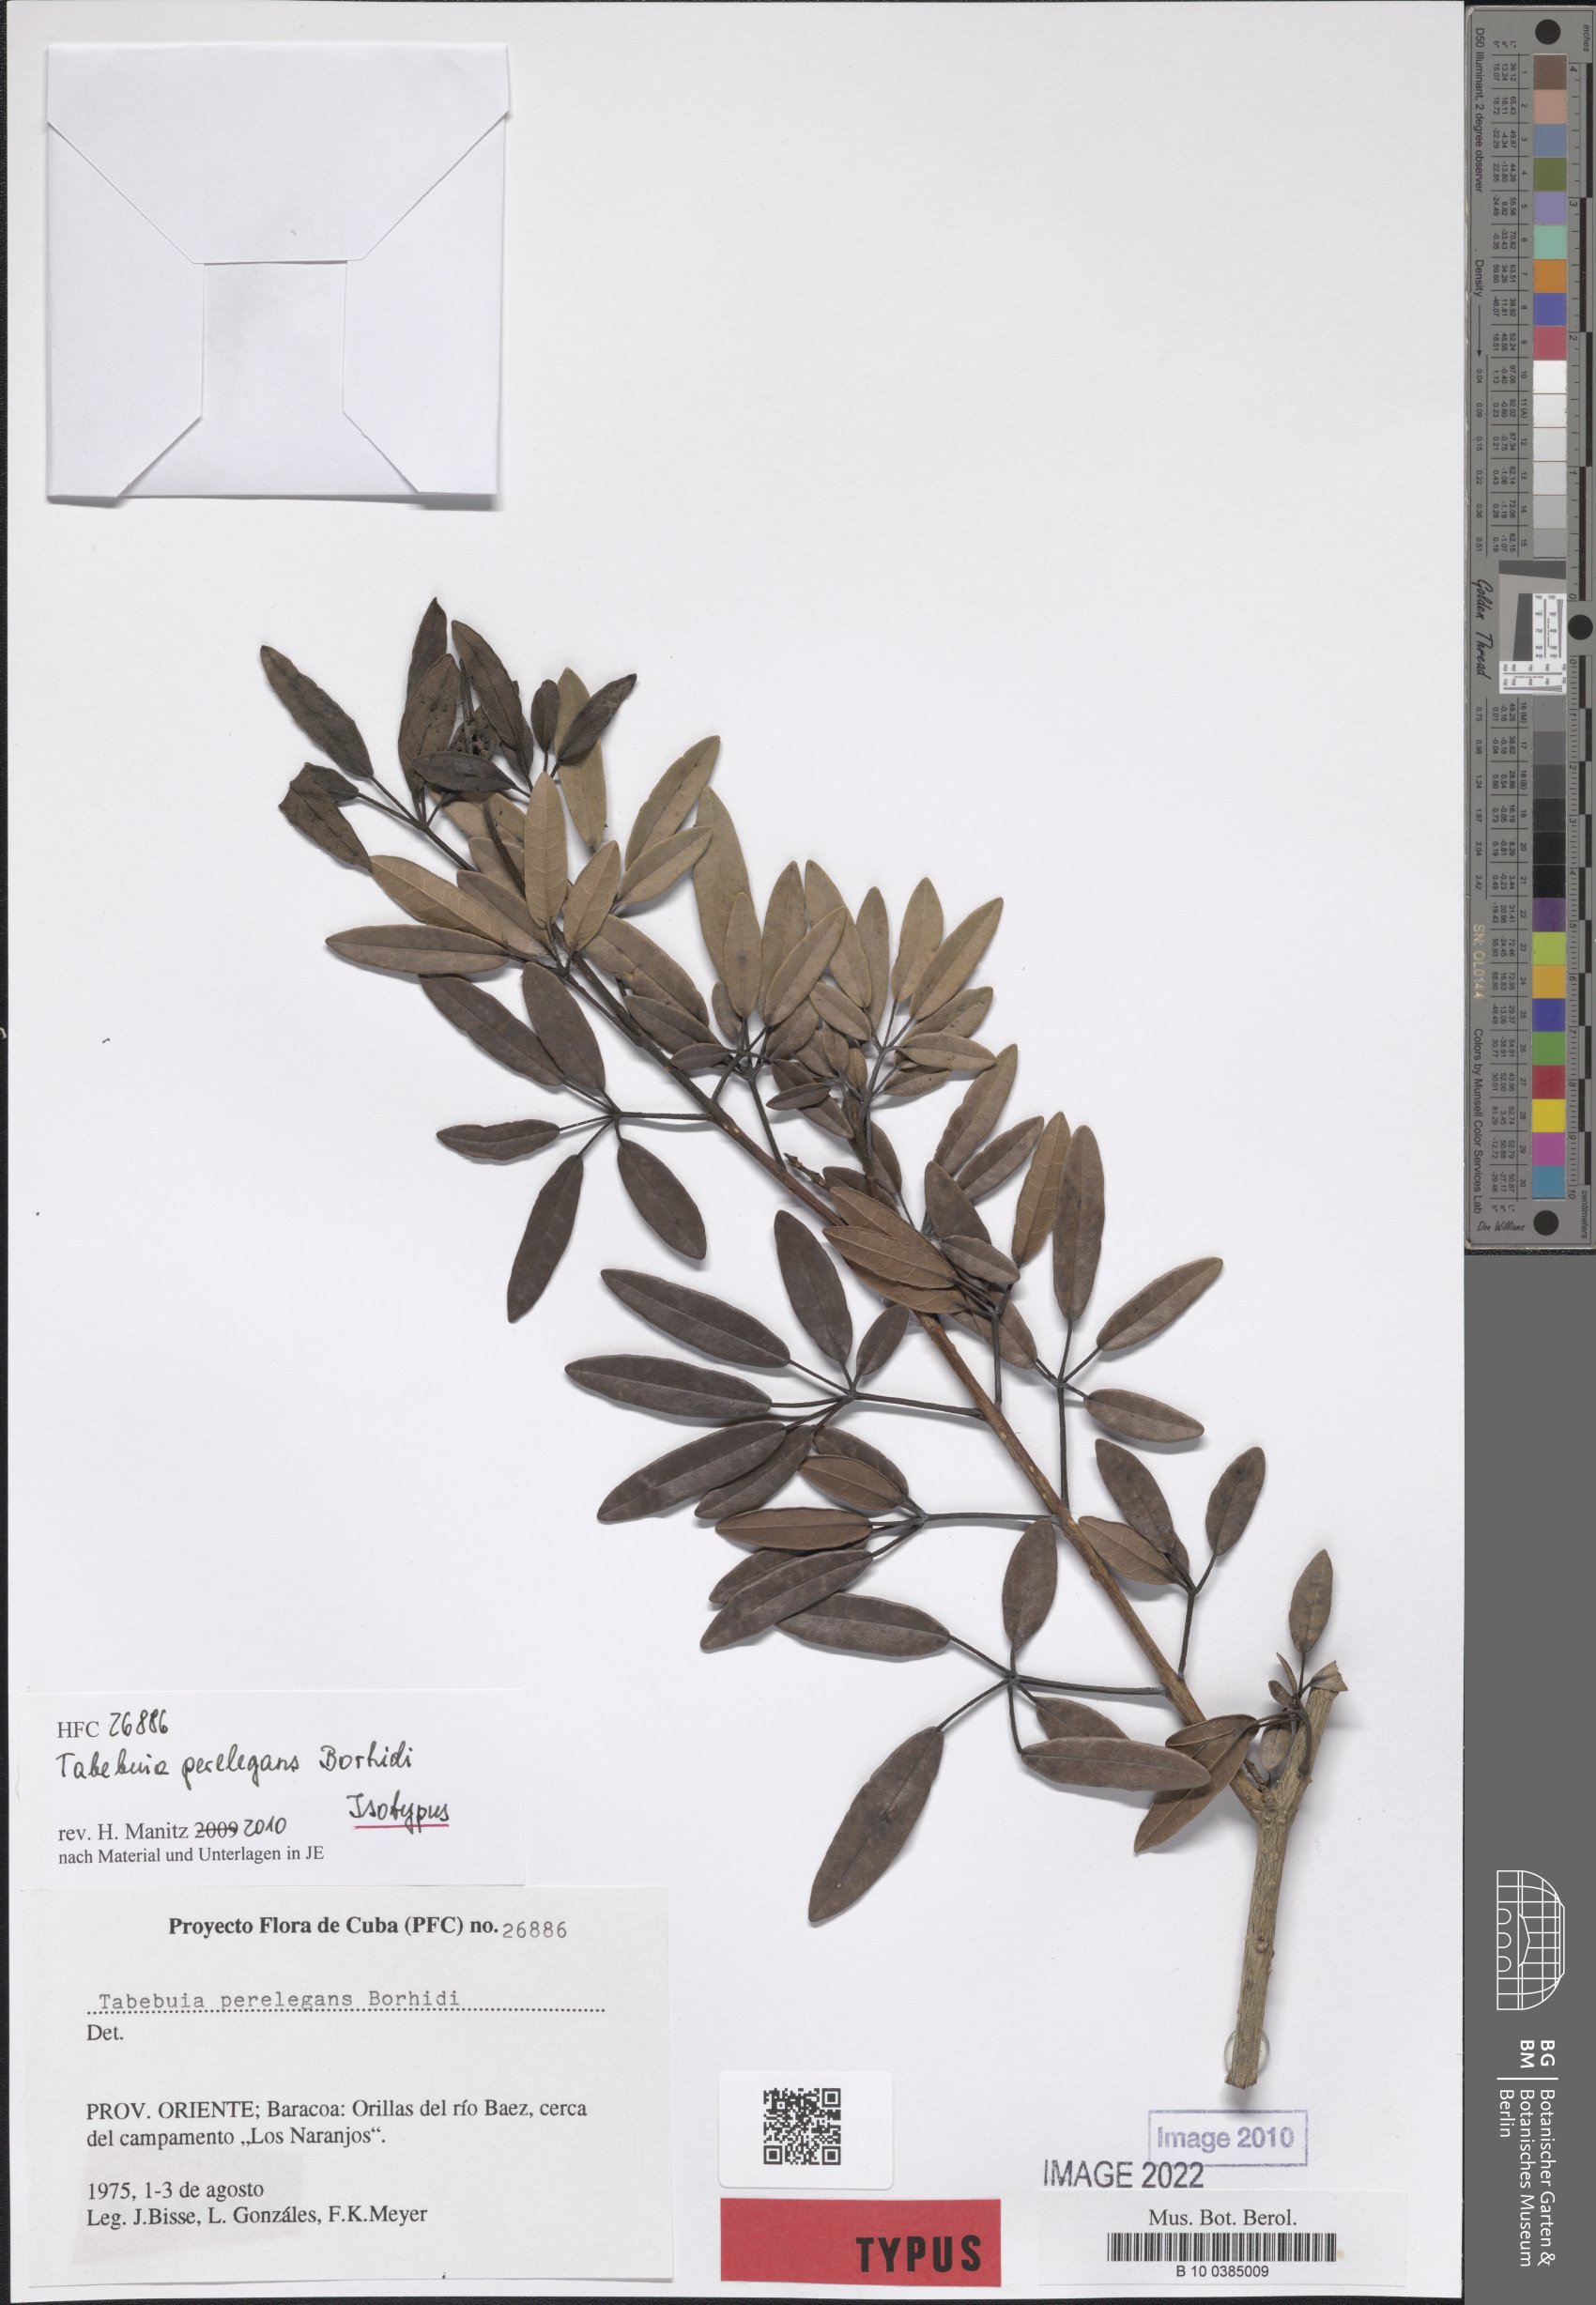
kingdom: Plantae
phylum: Tracheophyta
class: Magnoliopsida
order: Lamiales
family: Bignoniaceae
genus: Tabebuia
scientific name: Tabebuia perelegans
